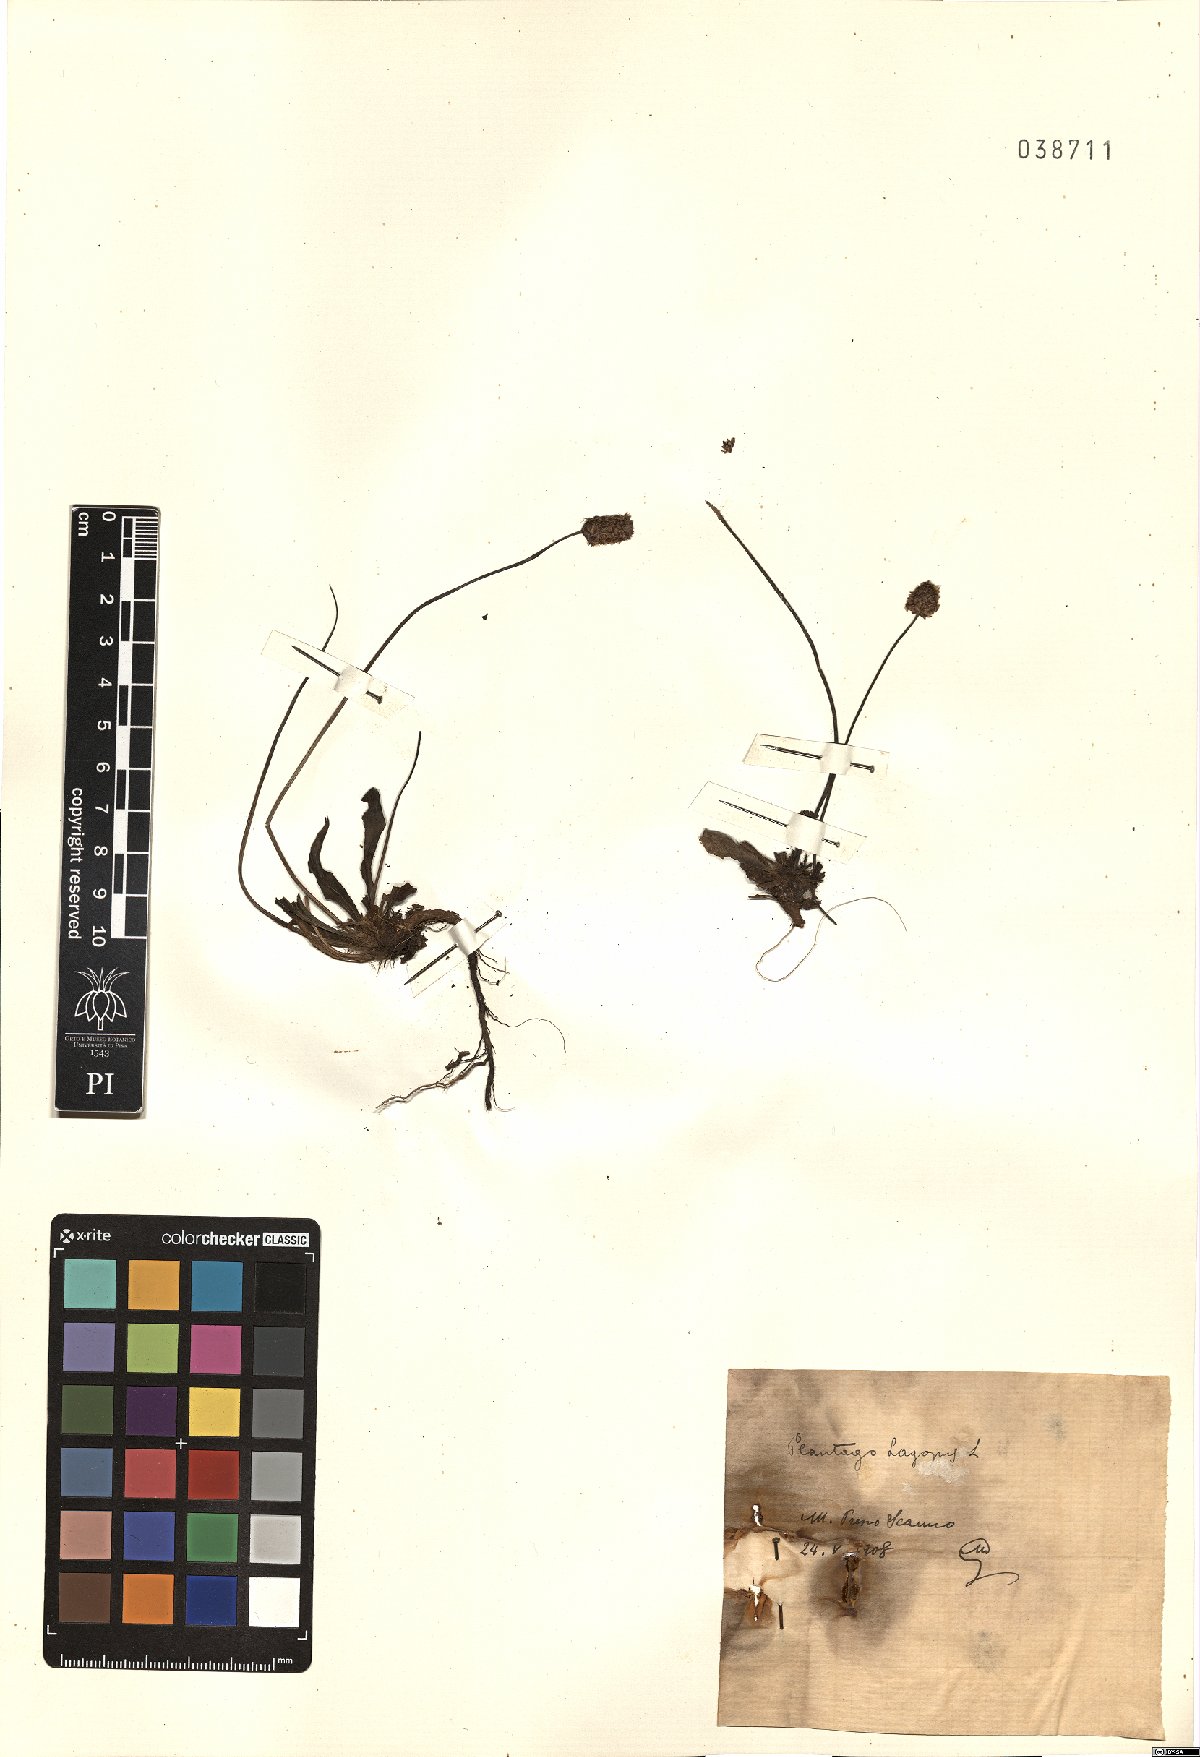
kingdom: Plantae
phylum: Tracheophyta
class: Magnoliopsida
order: Lamiales
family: Plantaginaceae
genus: Plantago
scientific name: Plantago lagopus
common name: Hare-foot plantain
